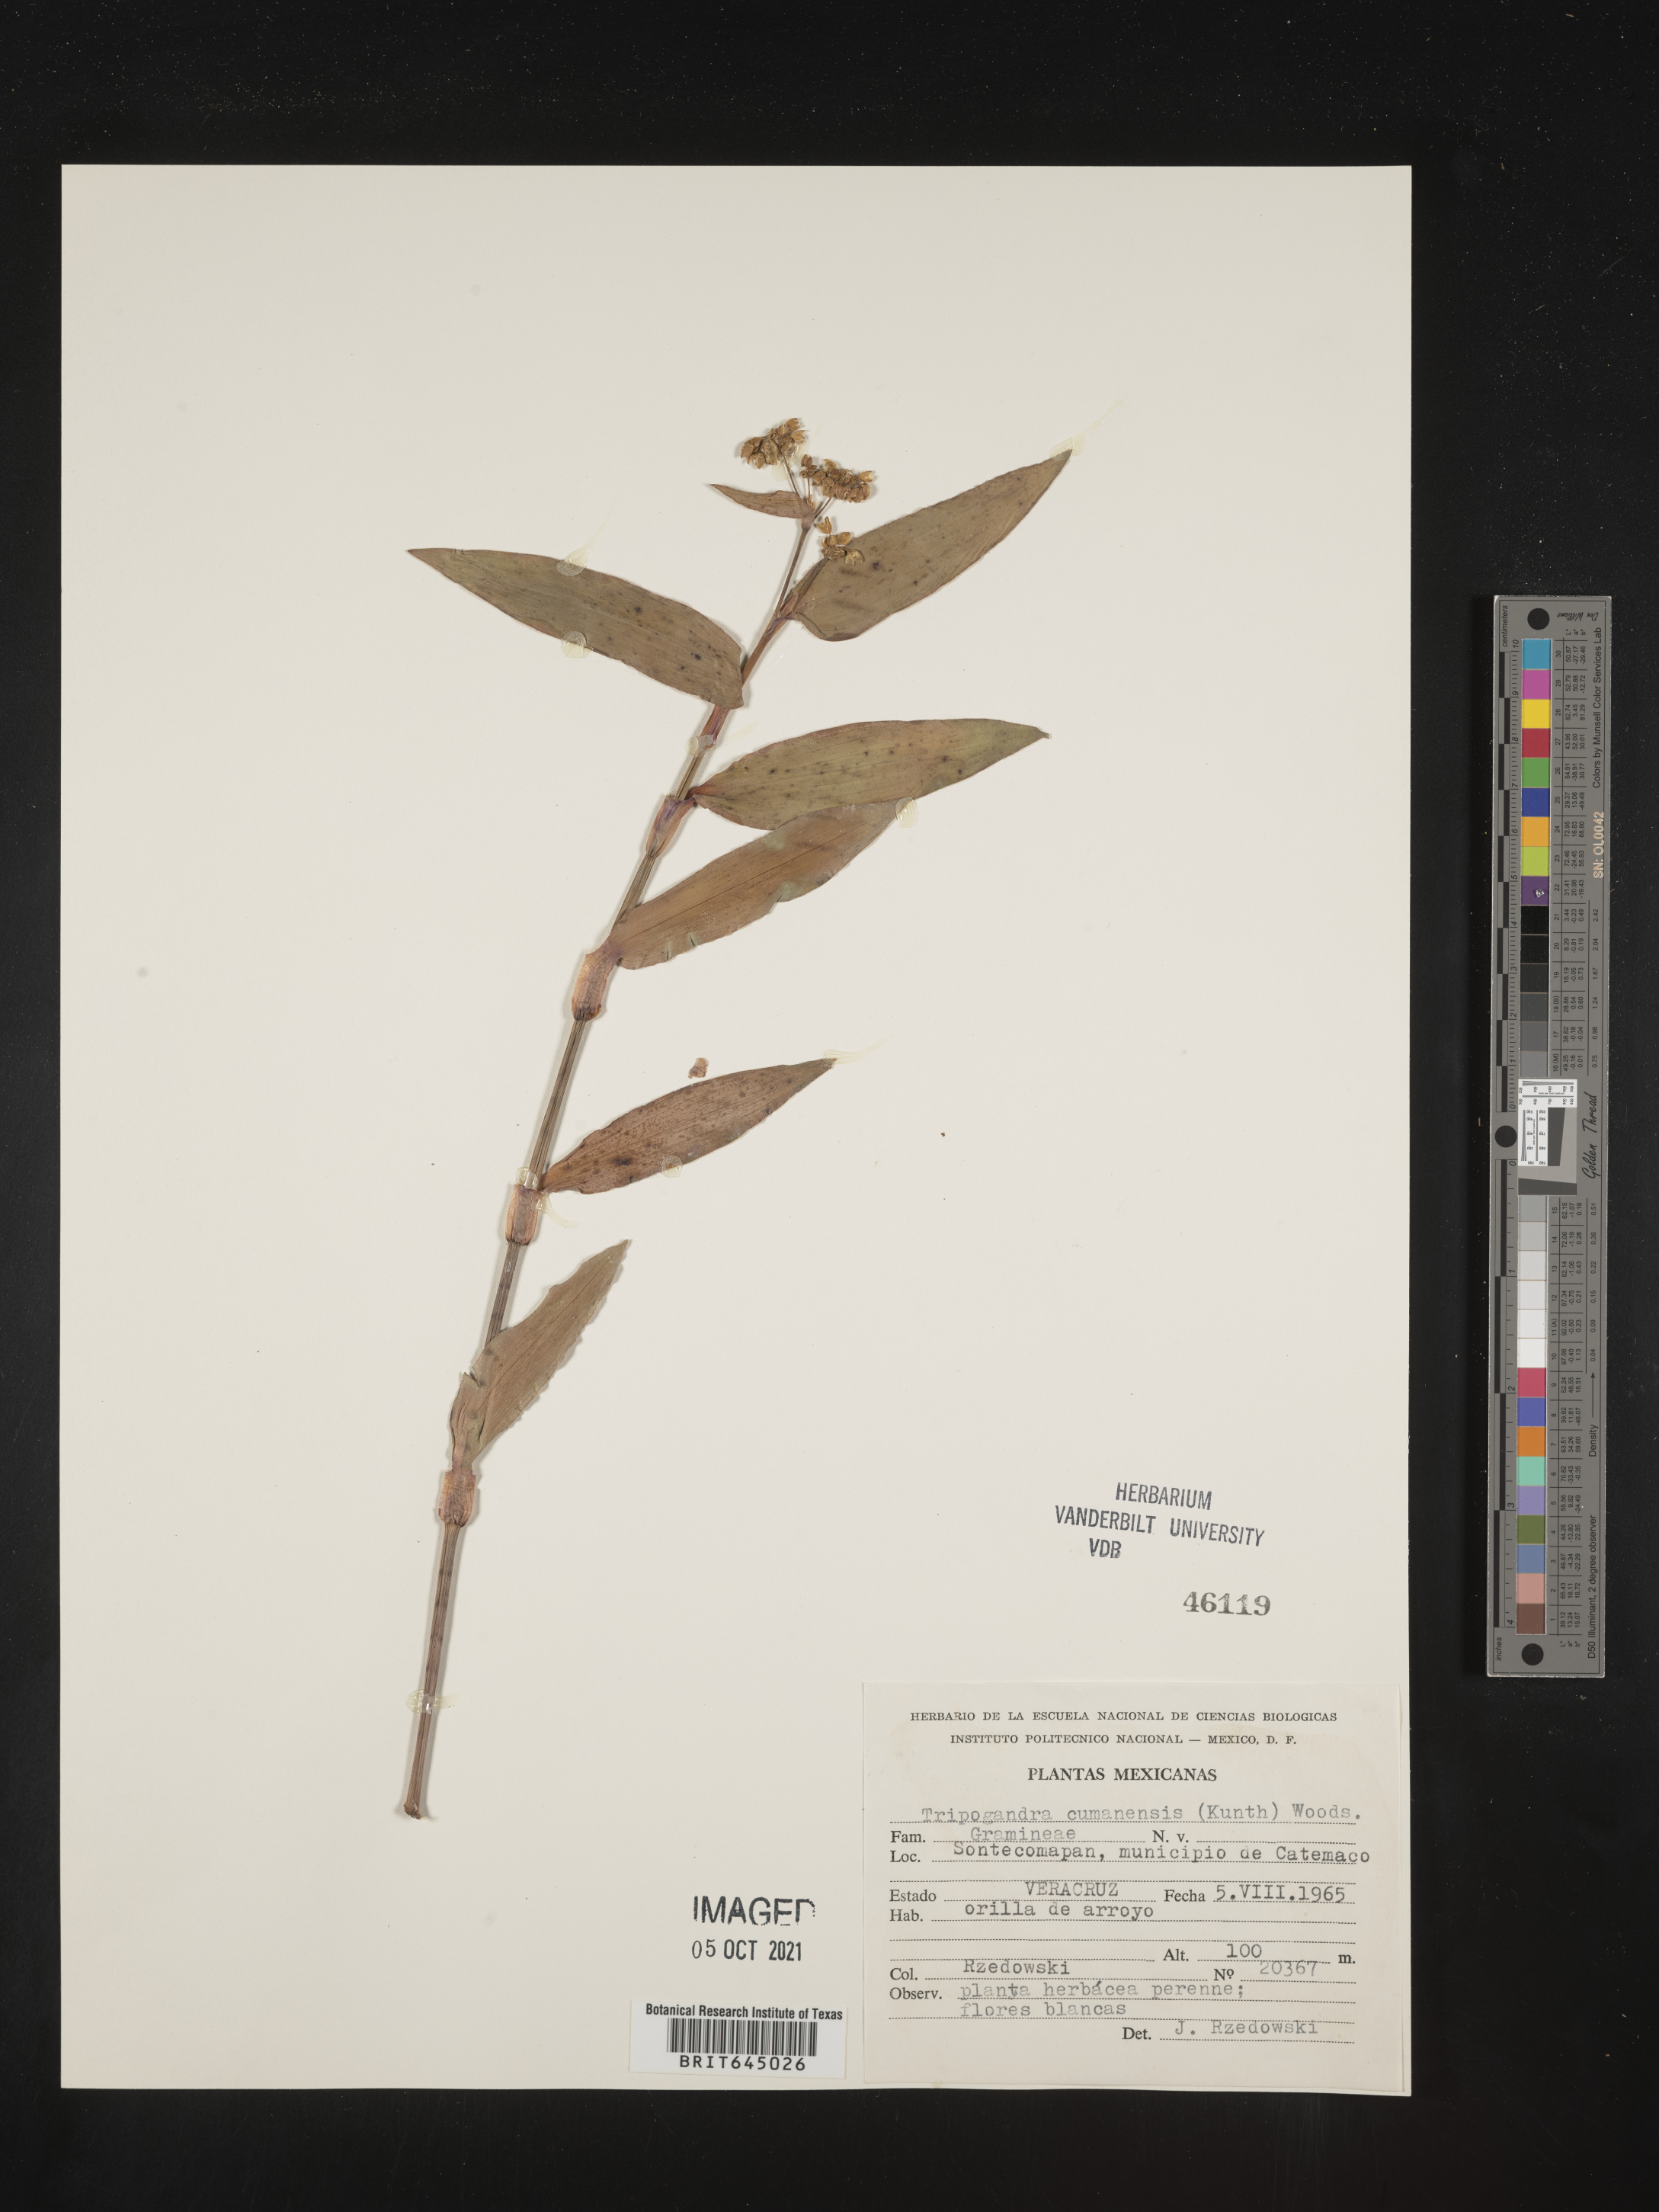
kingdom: Plantae
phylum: Tracheophyta
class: Liliopsida
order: Commelinales
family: Commelinaceae
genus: Callisia
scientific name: Callisia
